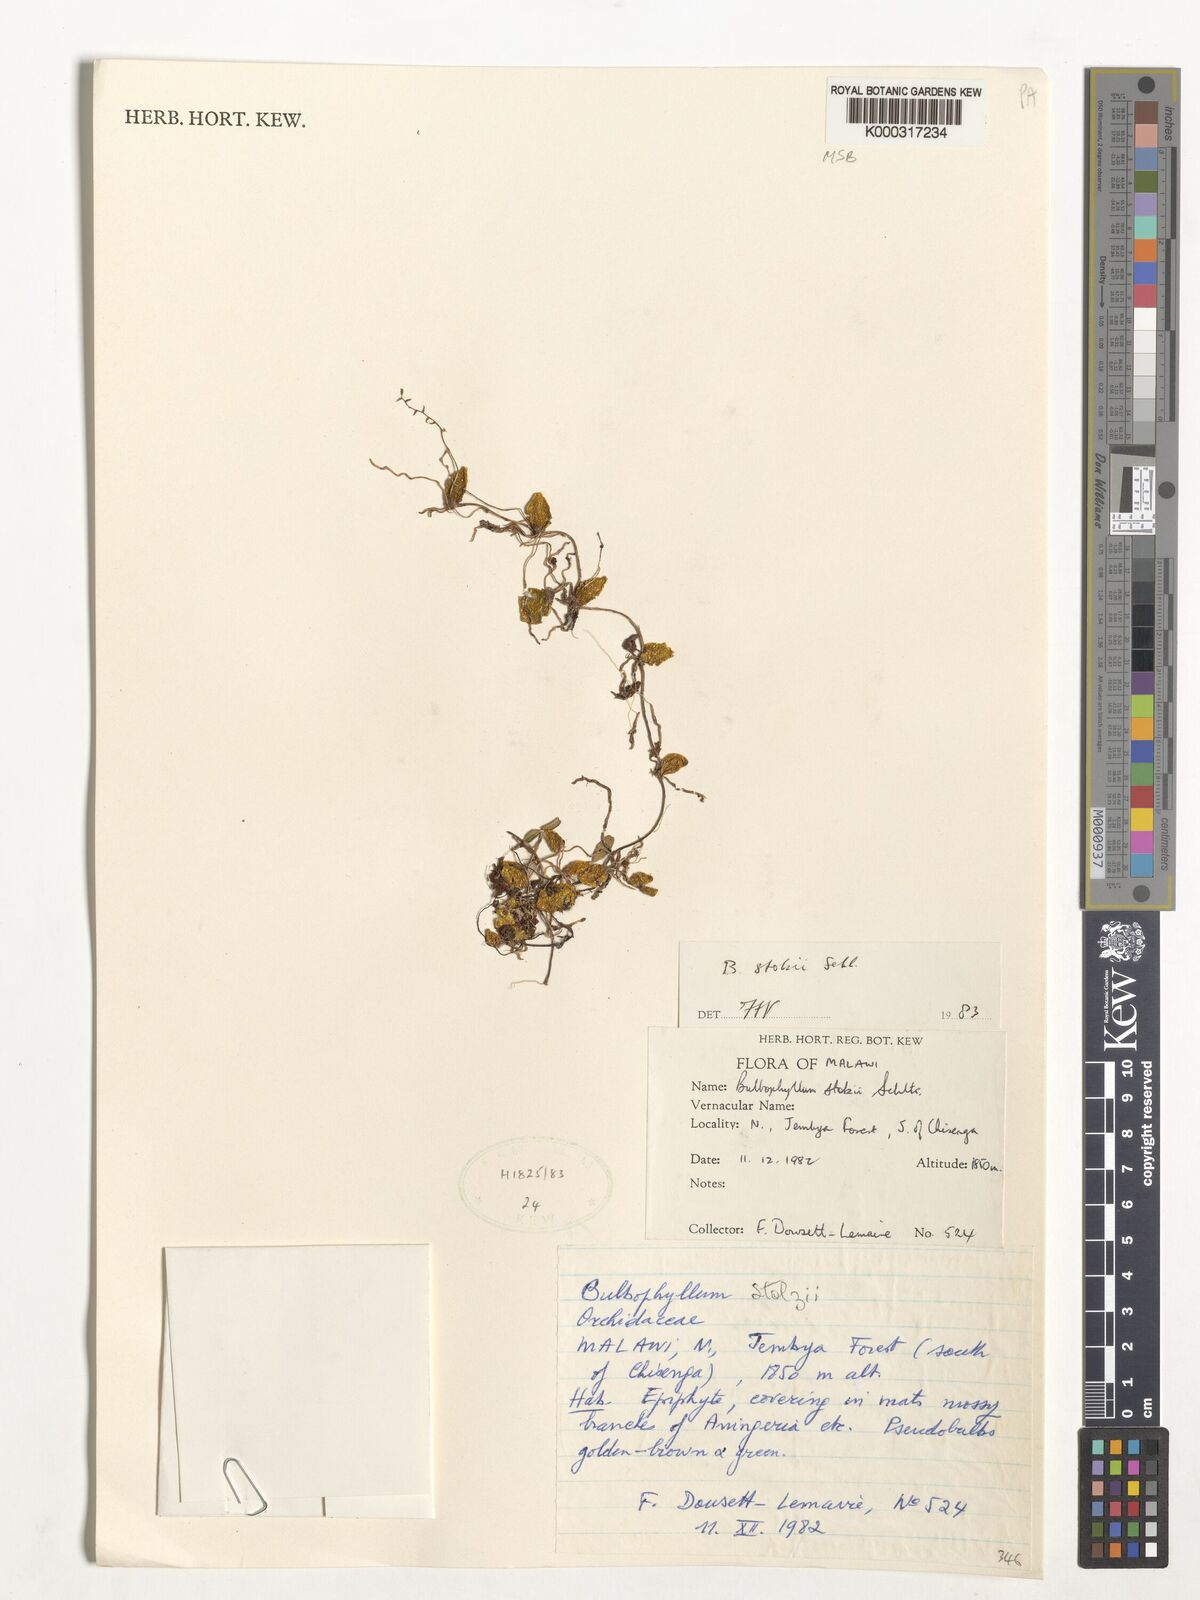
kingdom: Plantae
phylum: Tracheophyta
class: Liliopsida
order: Asparagales
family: Orchidaceae
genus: Bulbophyllum
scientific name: Bulbophyllum stolzii
